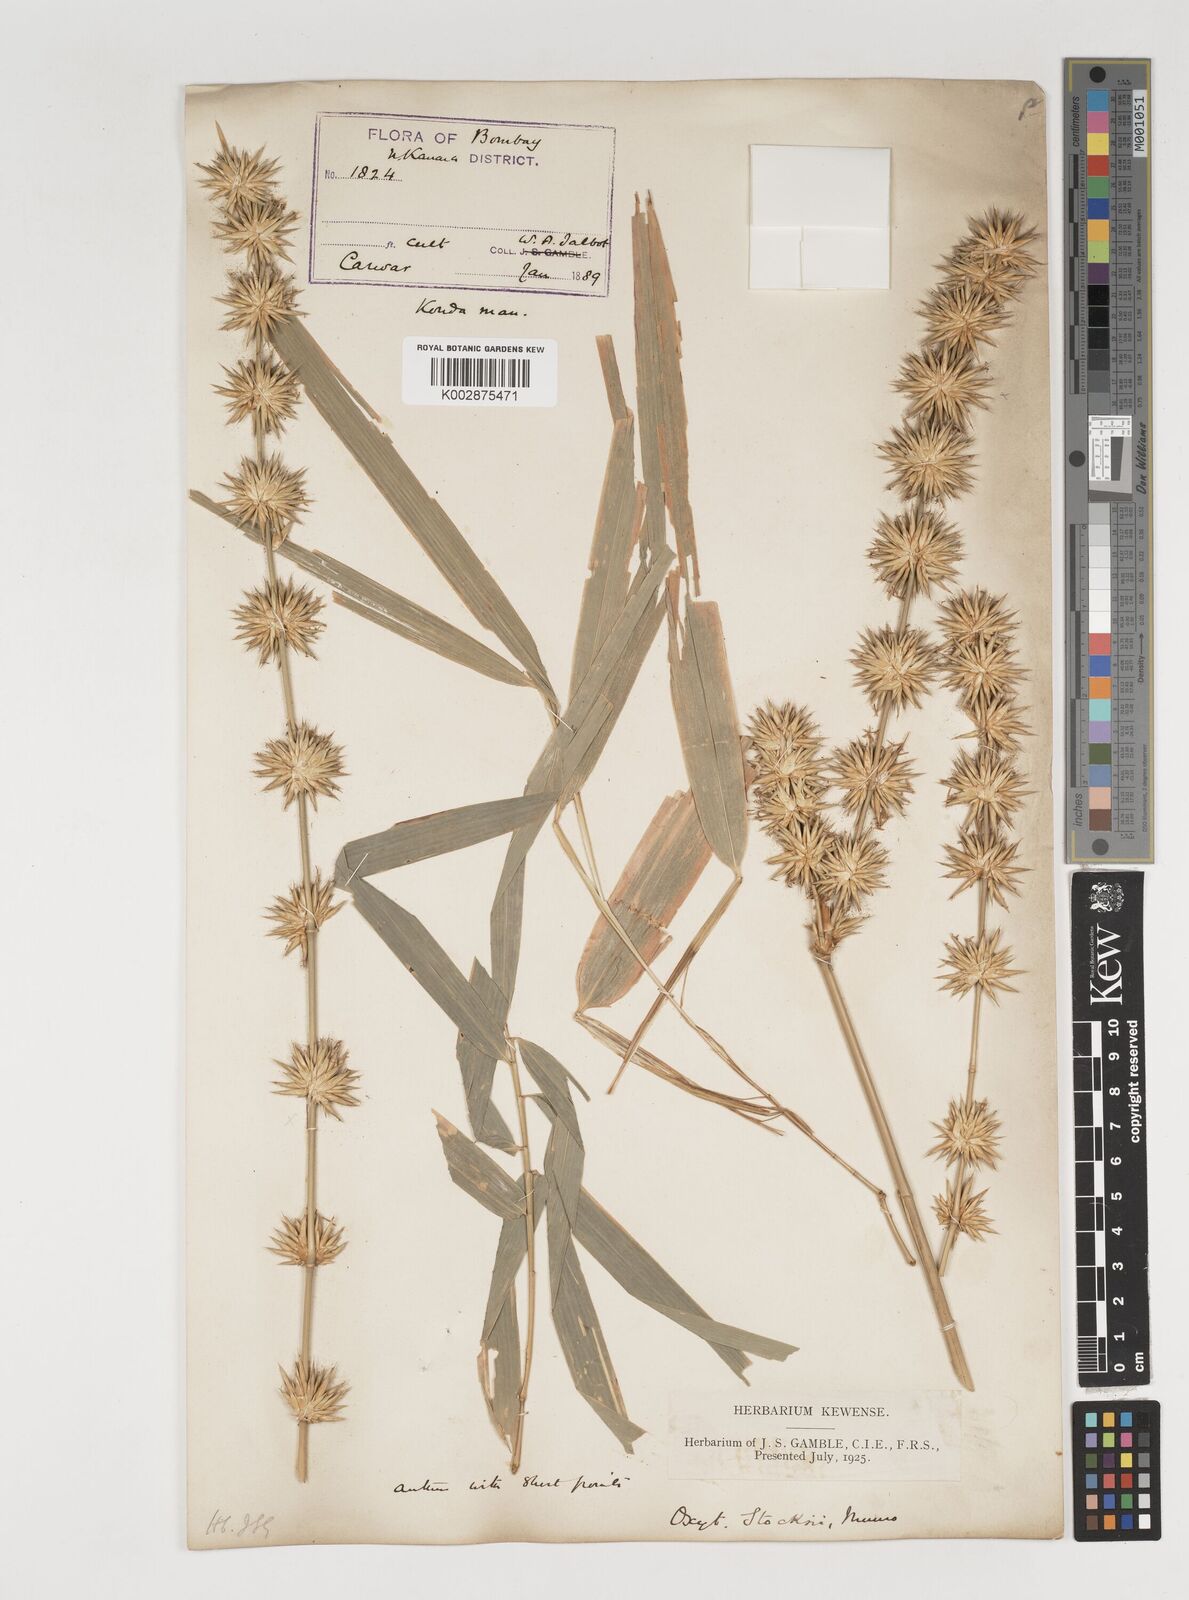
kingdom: Plantae
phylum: Tracheophyta
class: Liliopsida
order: Poales
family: Poaceae
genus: Pseudoxytenanthera
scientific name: Pseudoxytenanthera stocksii
